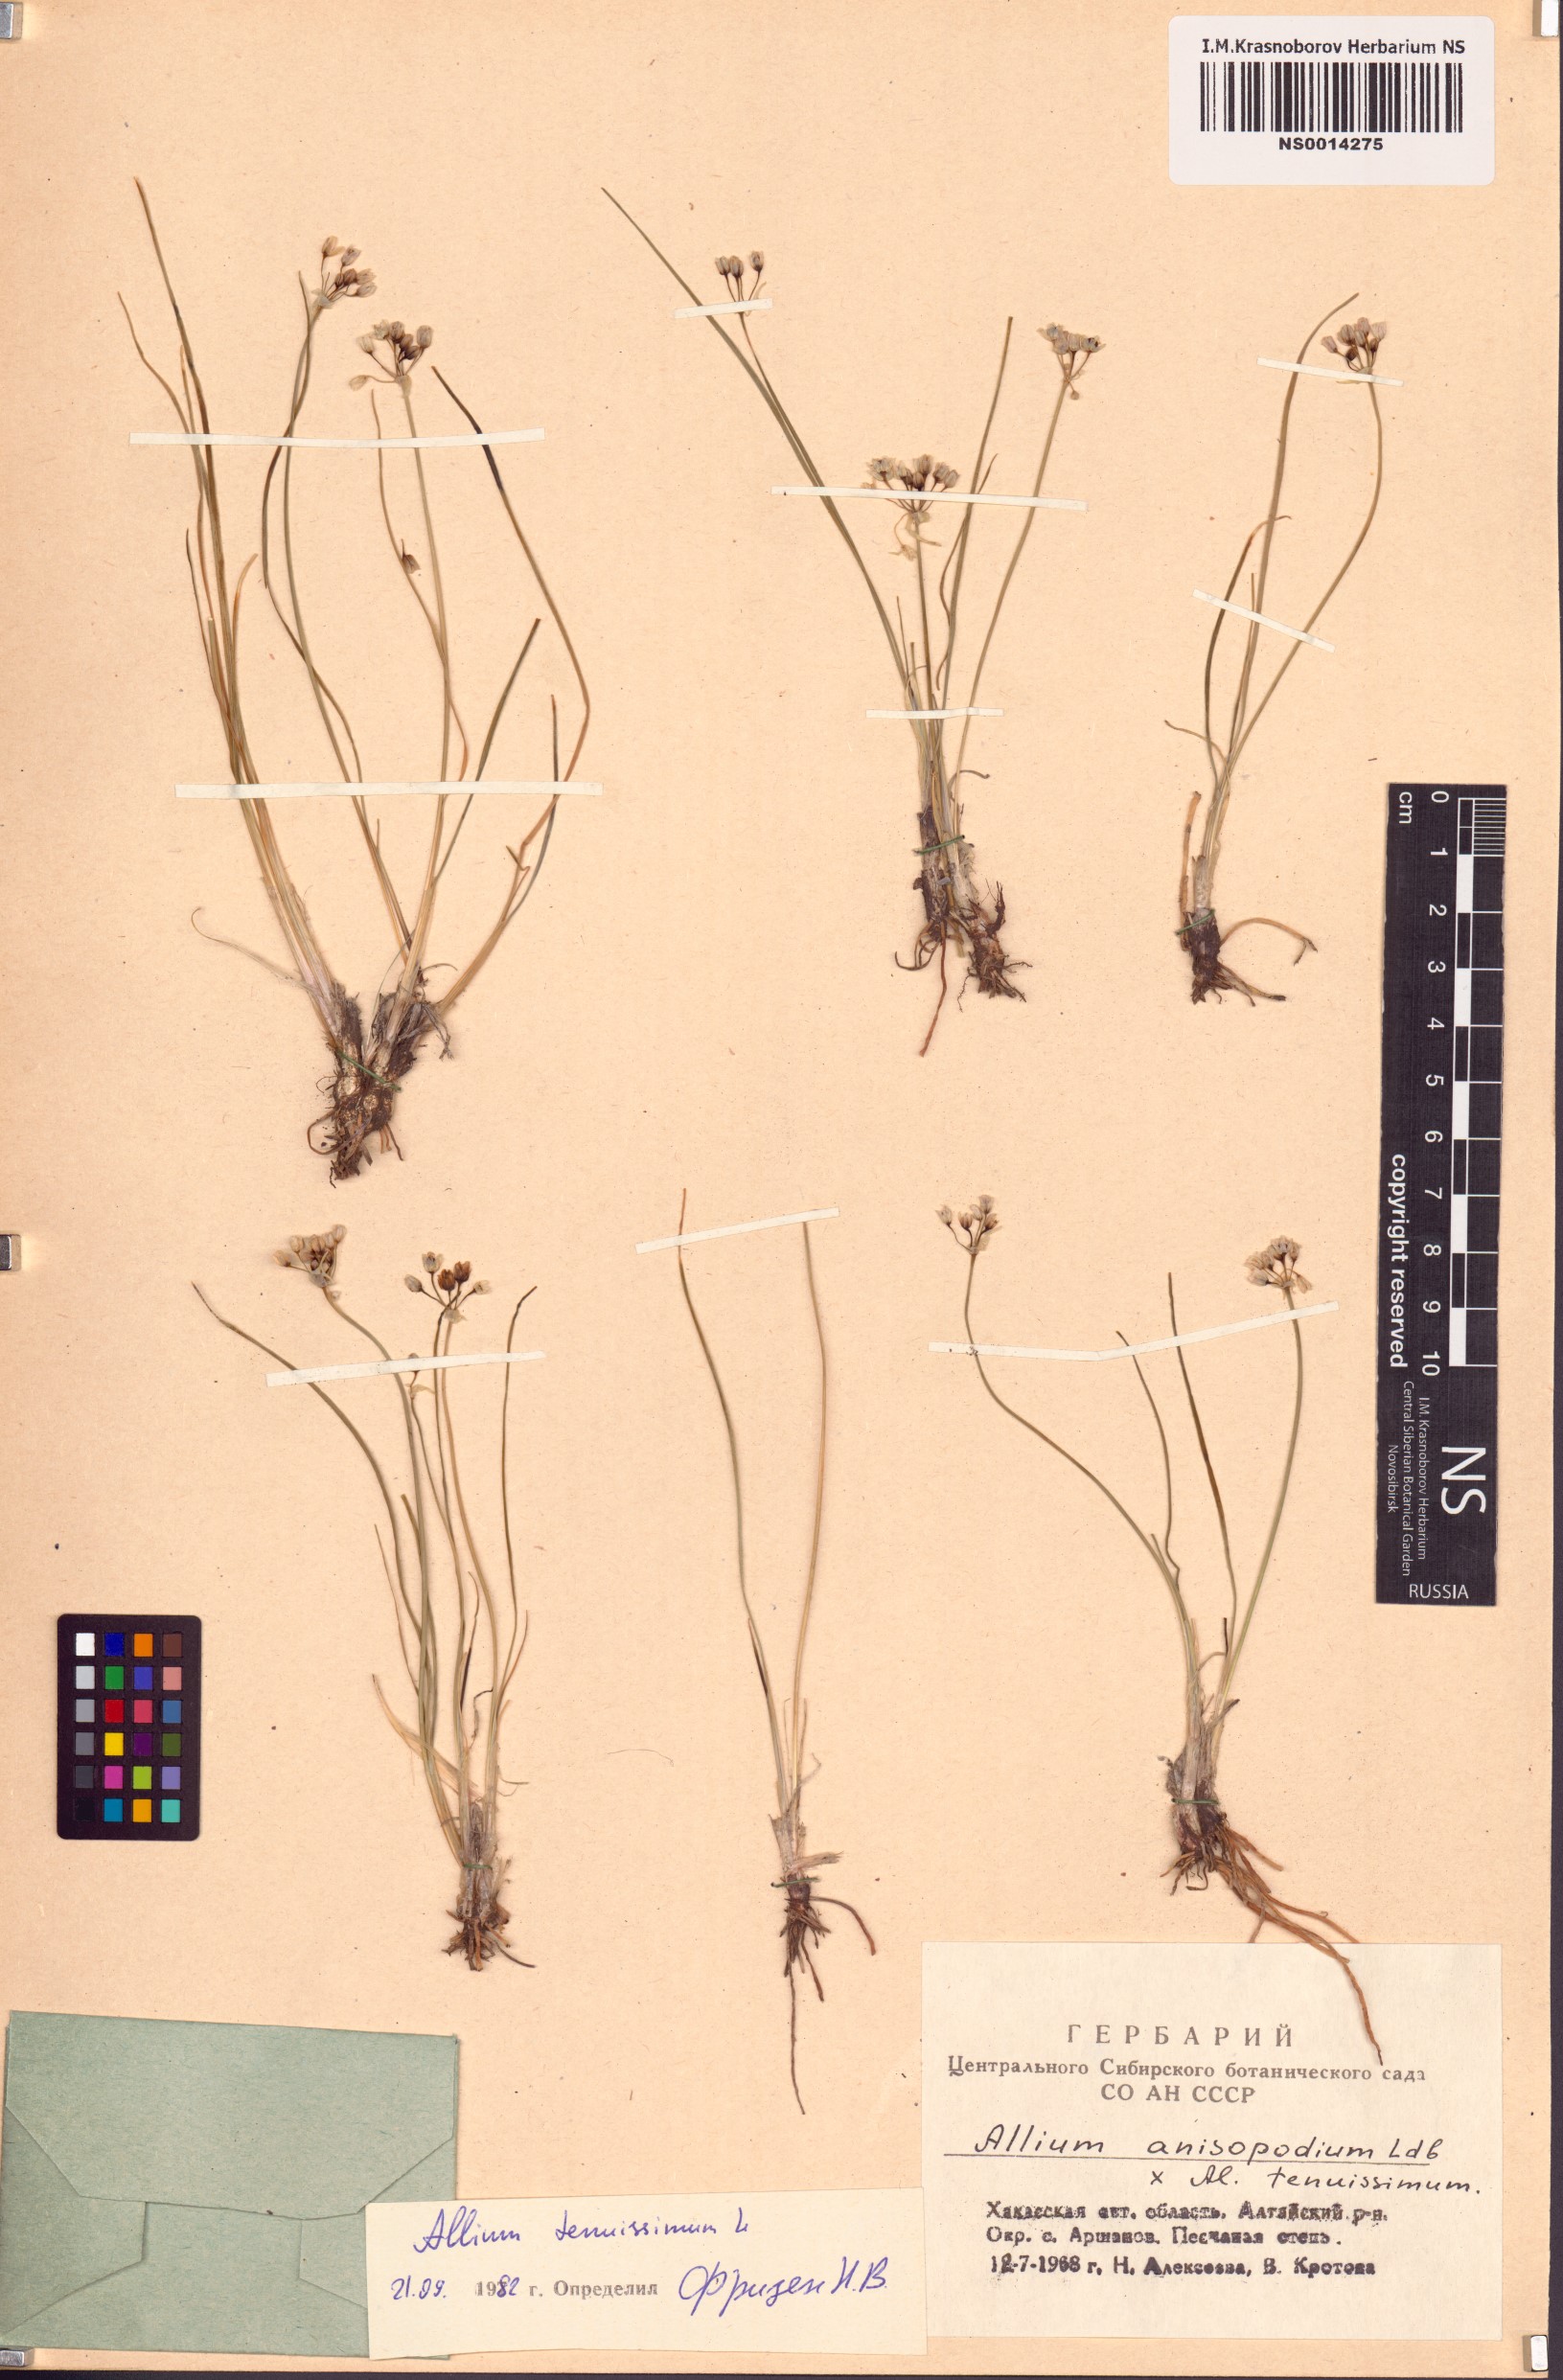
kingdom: Plantae
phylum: Tracheophyta
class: Liliopsida
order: Asparagales
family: Amaryllidaceae
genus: Allium
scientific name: Allium tenuissimum
